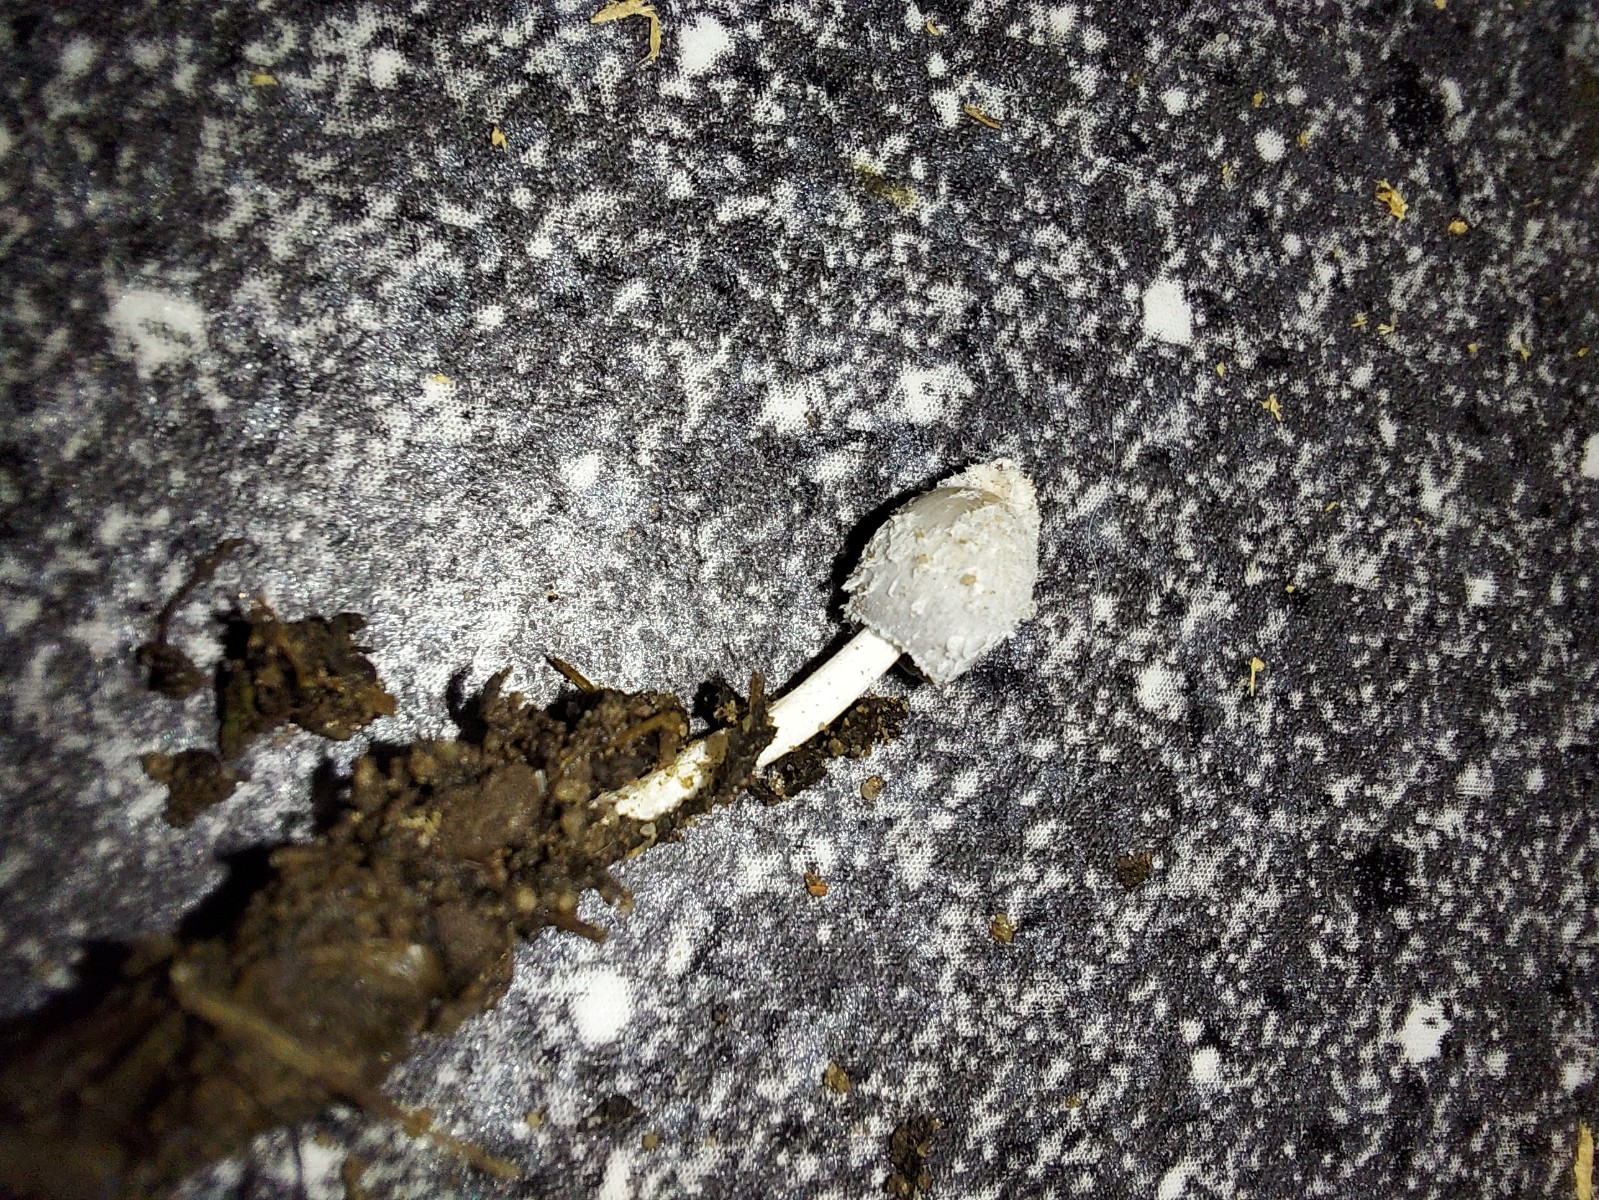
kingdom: Fungi
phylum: Basidiomycota
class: Agaricomycetes
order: Agaricales
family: Psathyrellaceae
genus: Coprinopsis
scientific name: Coprinopsis
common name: blækhat
